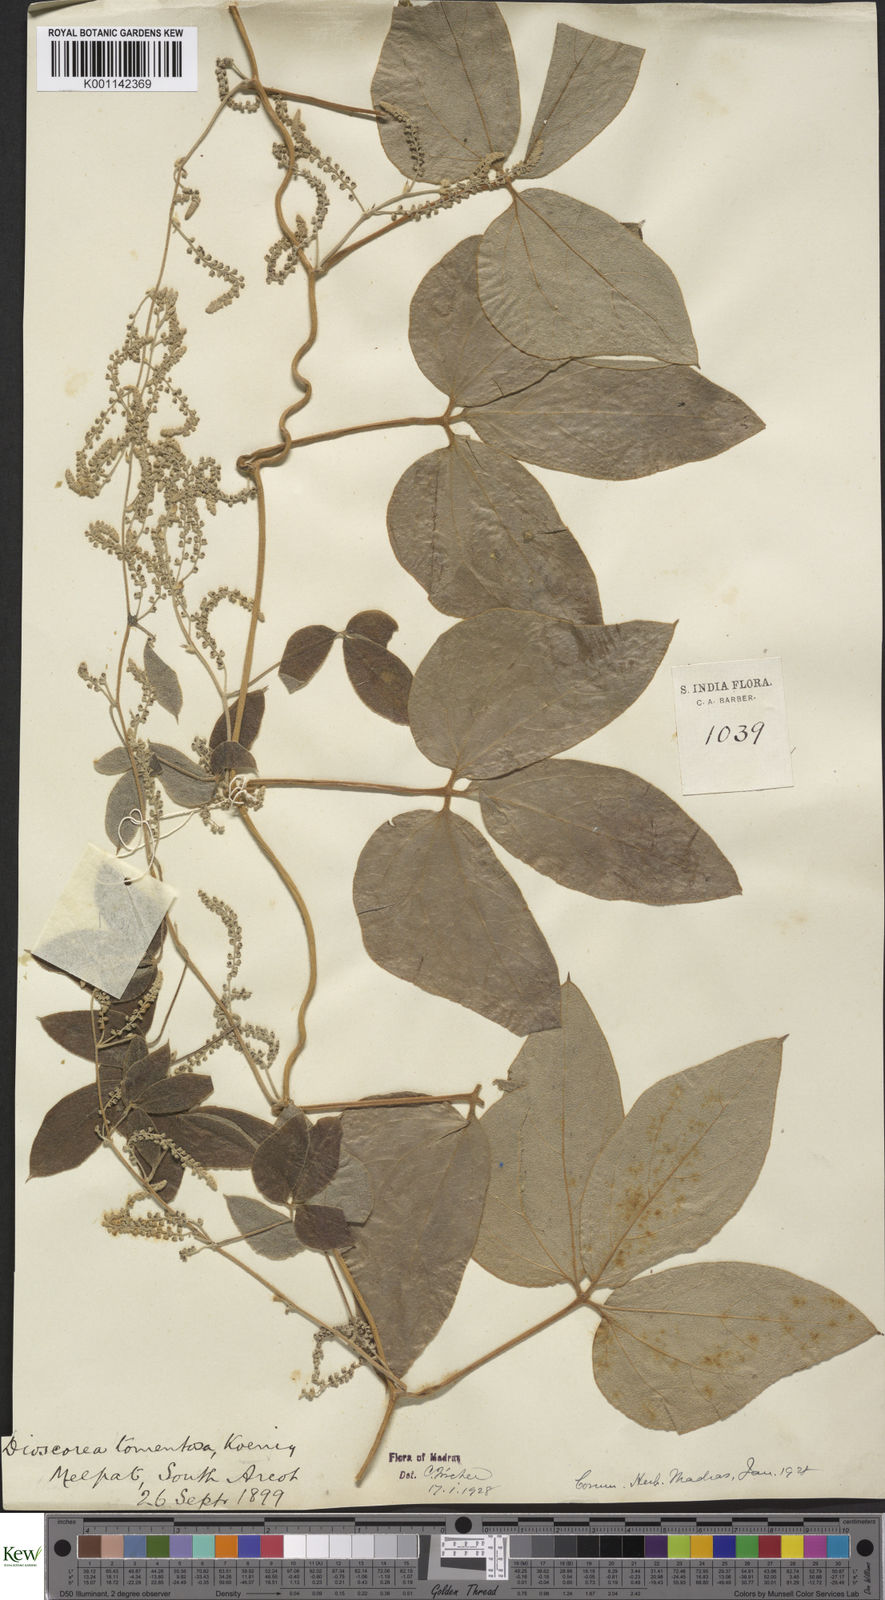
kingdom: Plantae
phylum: Tracheophyta
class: Liliopsida
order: Dioscoreales
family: Dioscoreaceae
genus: Dioscorea
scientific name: Dioscorea
